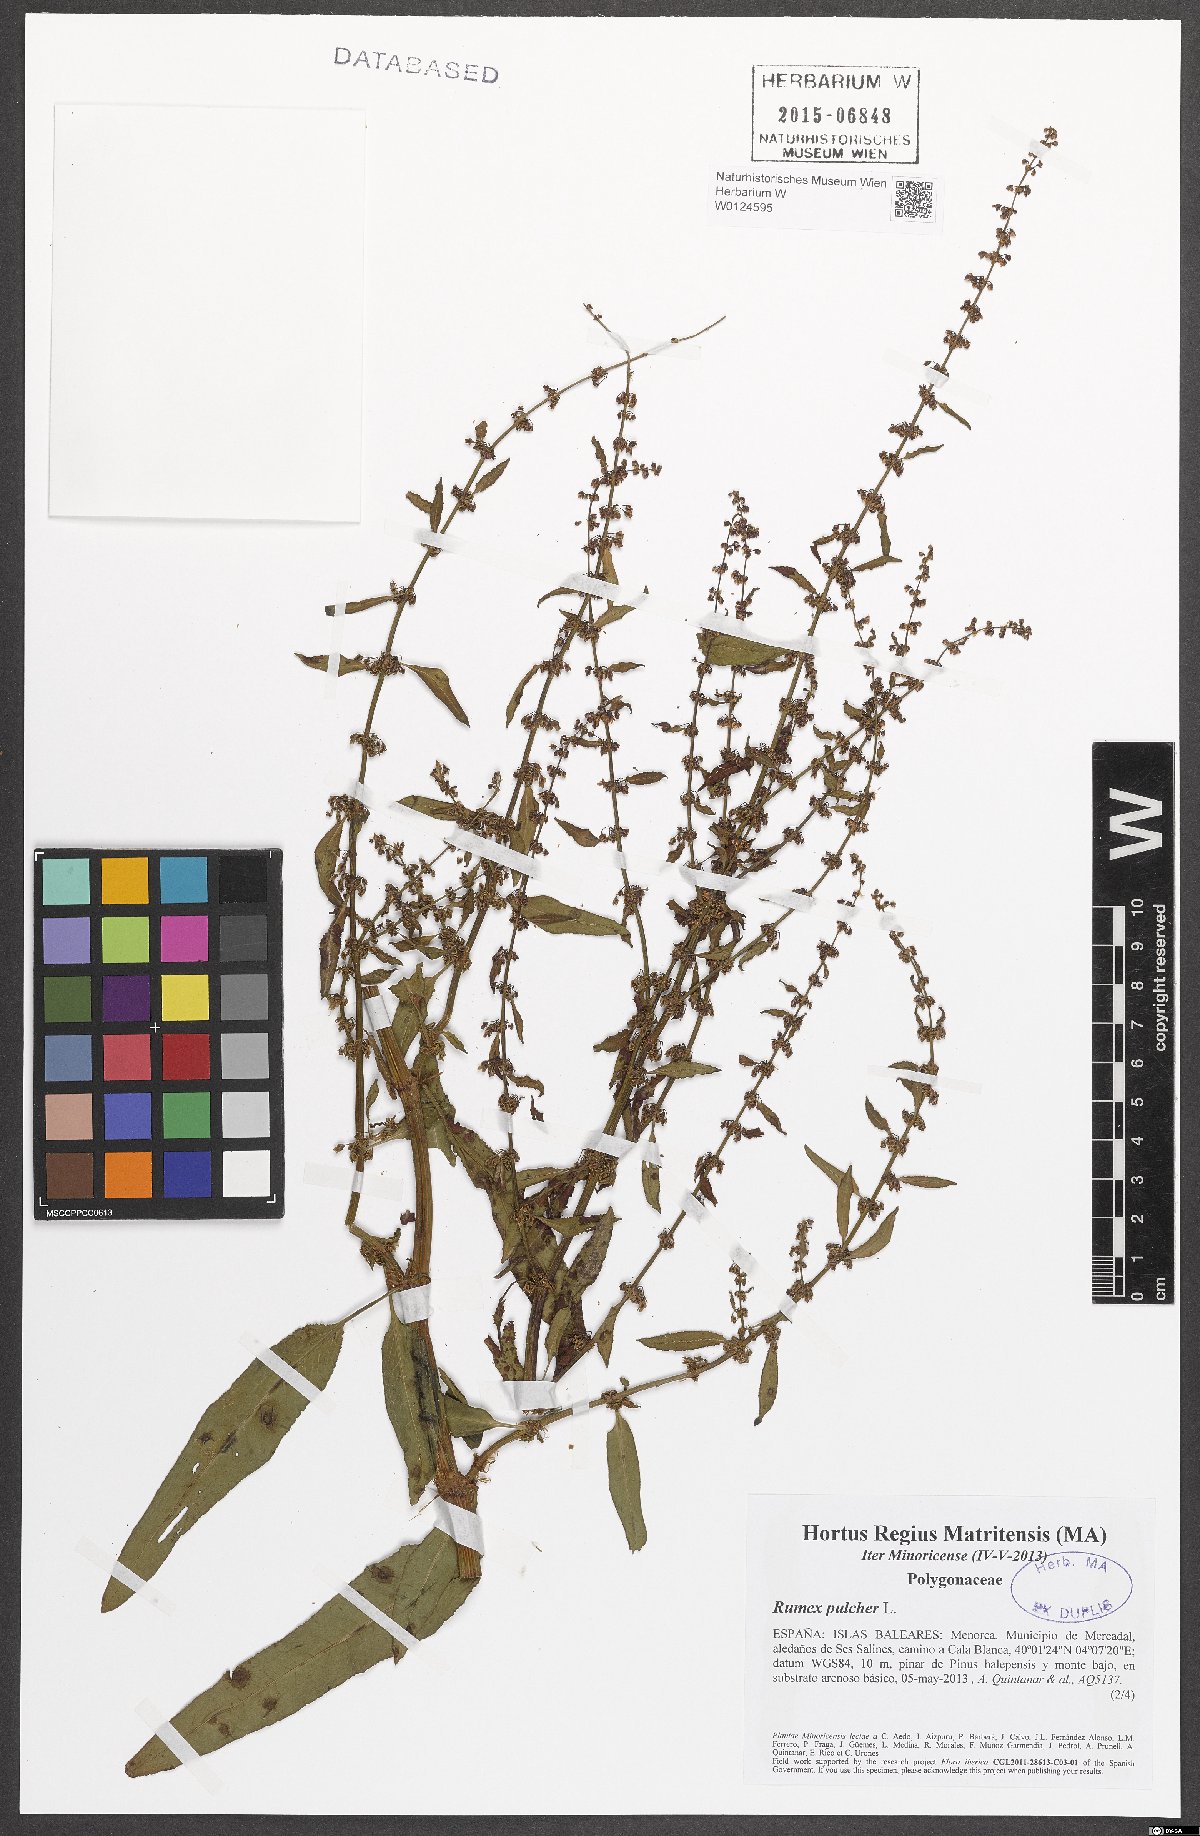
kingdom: Plantae
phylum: Tracheophyta
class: Magnoliopsida
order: Caryophyllales
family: Polygonaceae
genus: Rumex
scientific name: Rumex pulcher
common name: Fiddle dock
